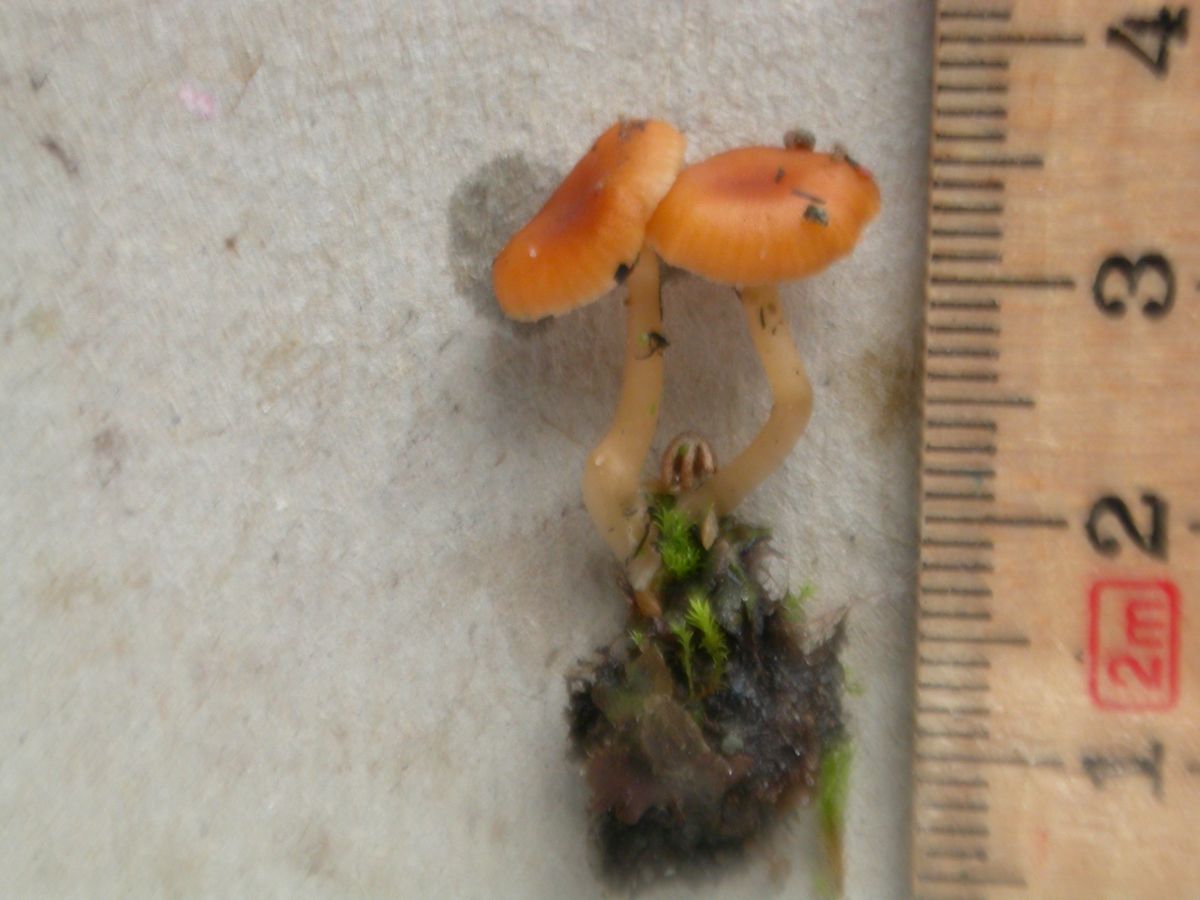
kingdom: Fungi
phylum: Basidiomycota
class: Agaricomycetes
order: Hymenochaetales
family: Rickenellaceae
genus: Loreleia
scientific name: Loreleia marchantiae
